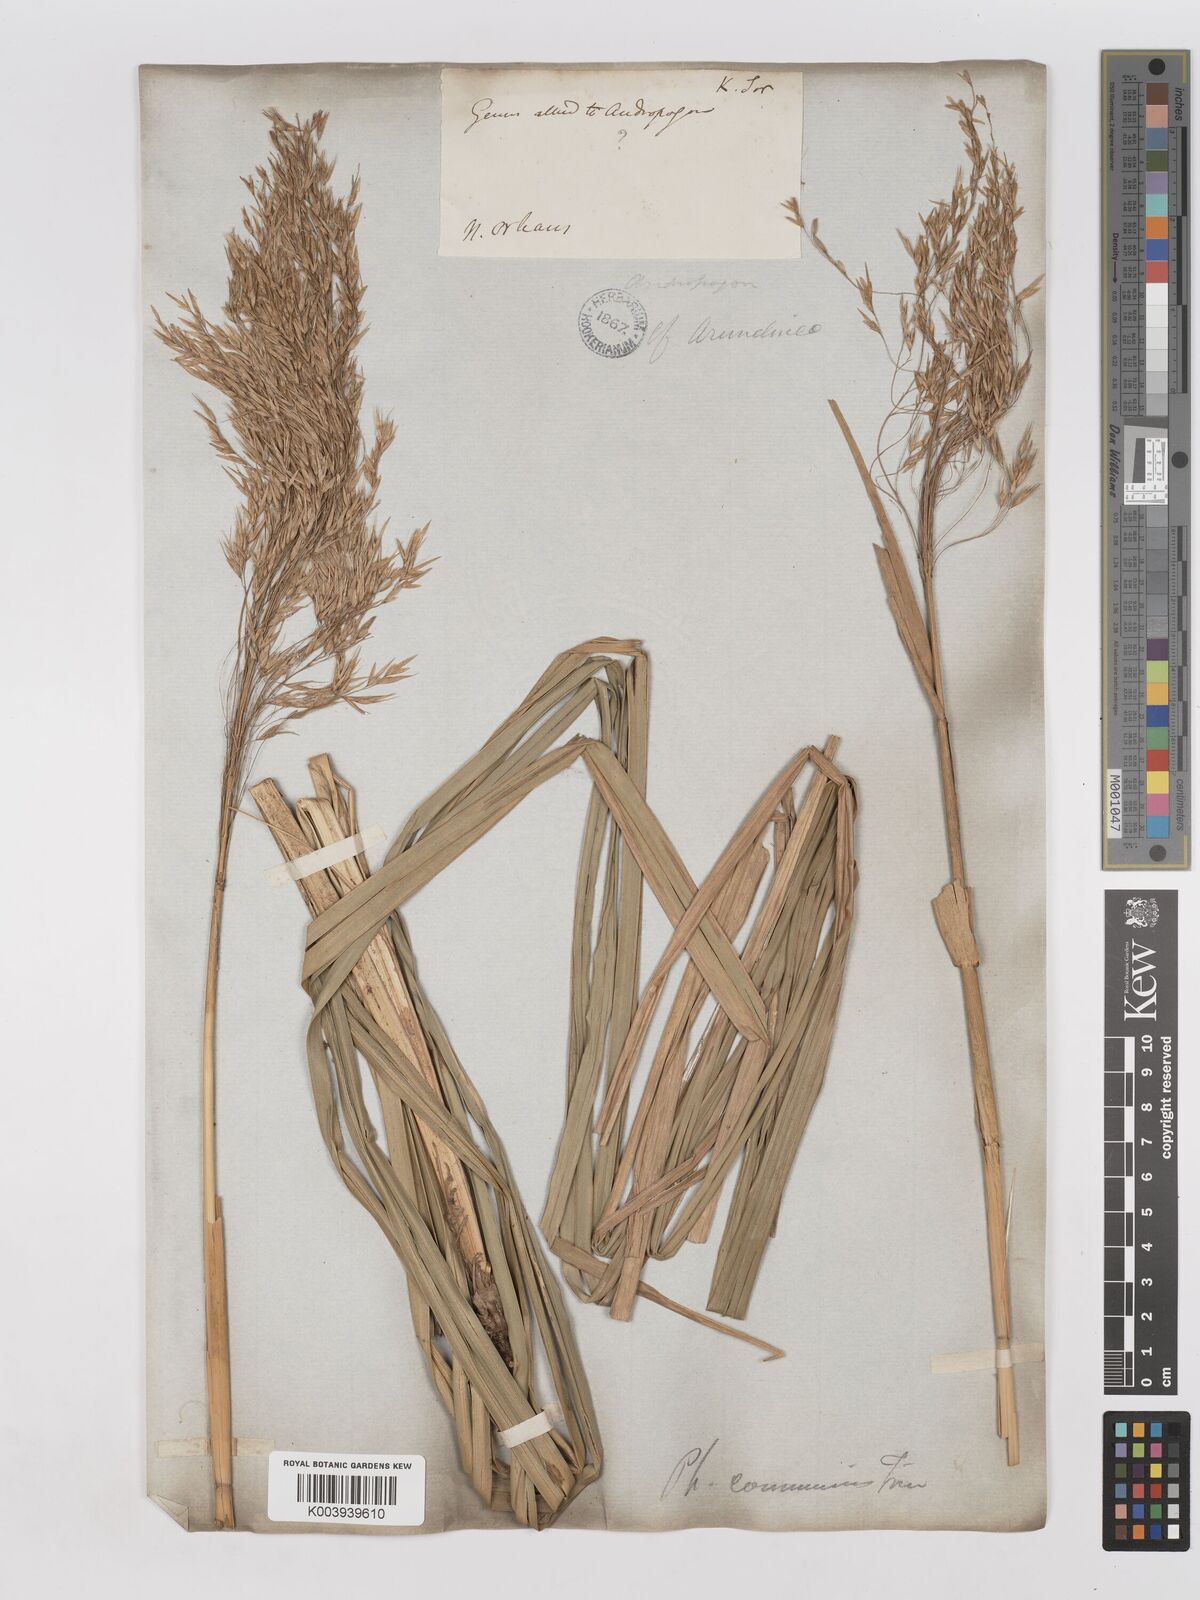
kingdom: Plantae
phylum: Tracheophyta
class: Liliopsida
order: Poales
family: Poaceae
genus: Phragmites
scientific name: Phragmites australis
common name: Common reed
